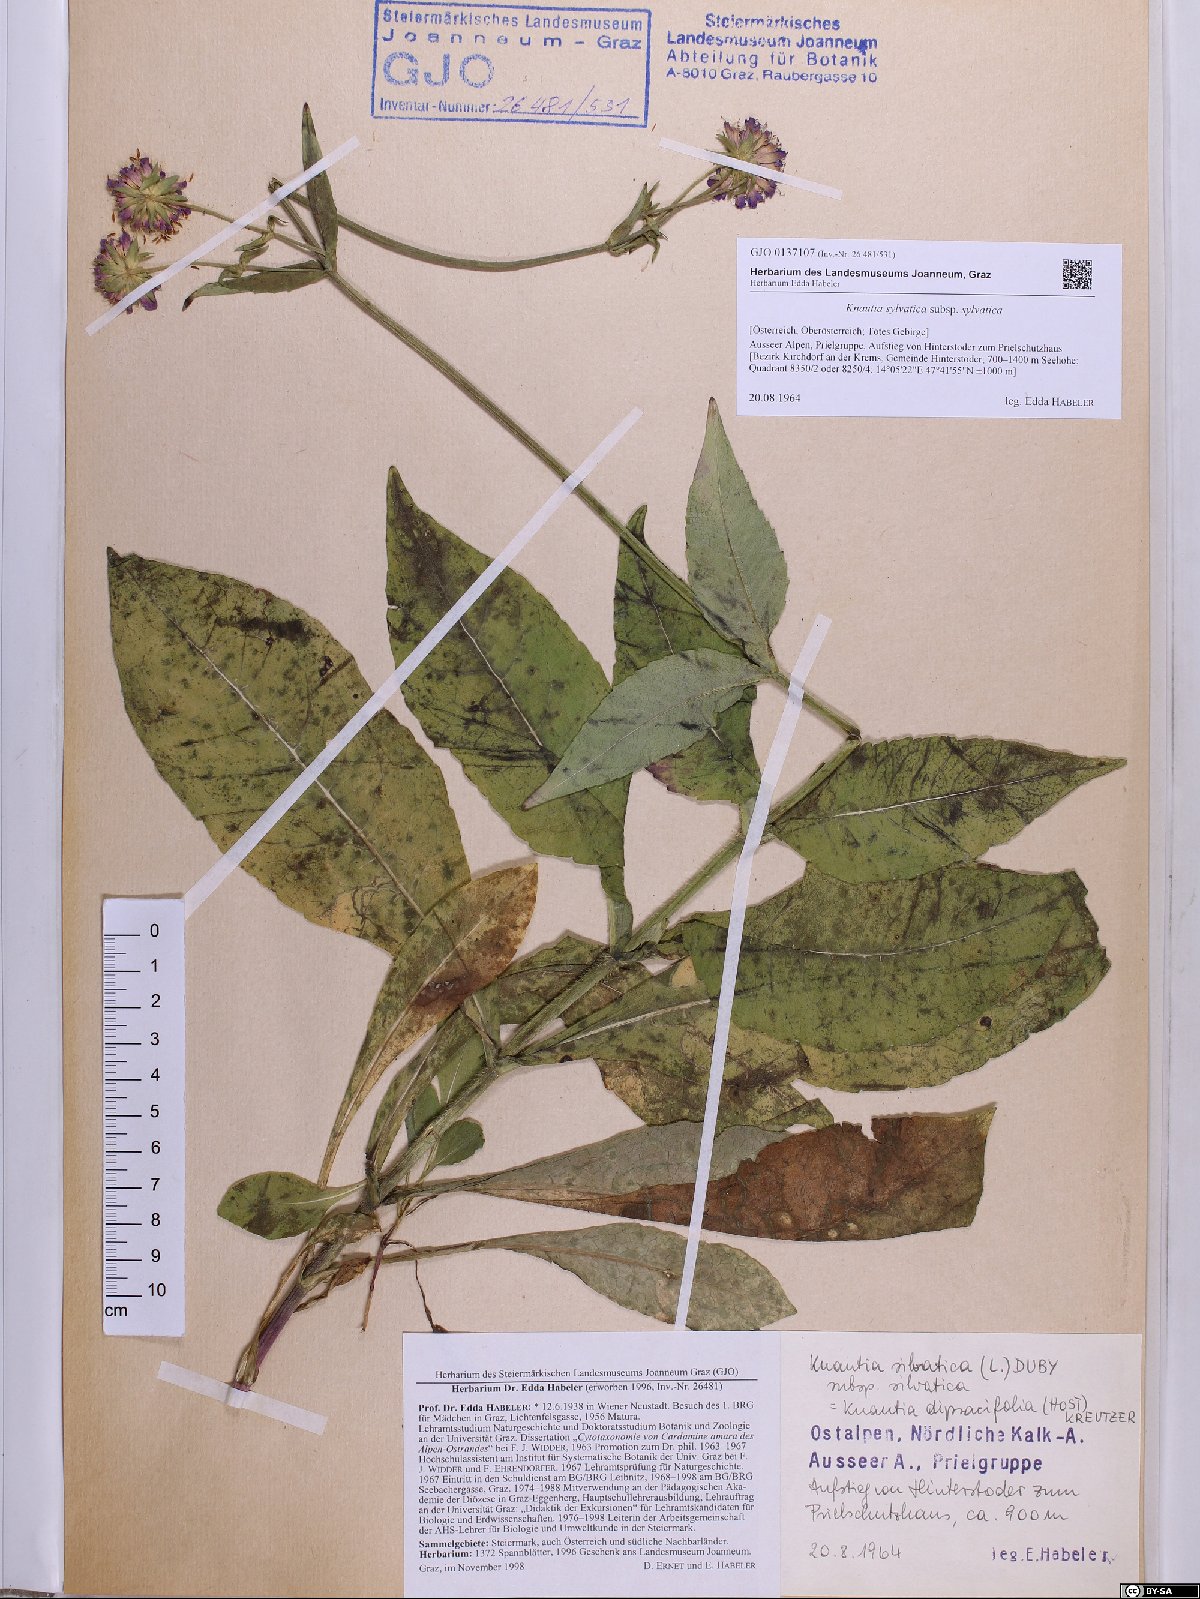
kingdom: Plantae
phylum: Tracheophyta
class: Magnoliopsida
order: Dipsacales
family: Caprifoliaceae
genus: Knautia
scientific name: Knautia drymeia
